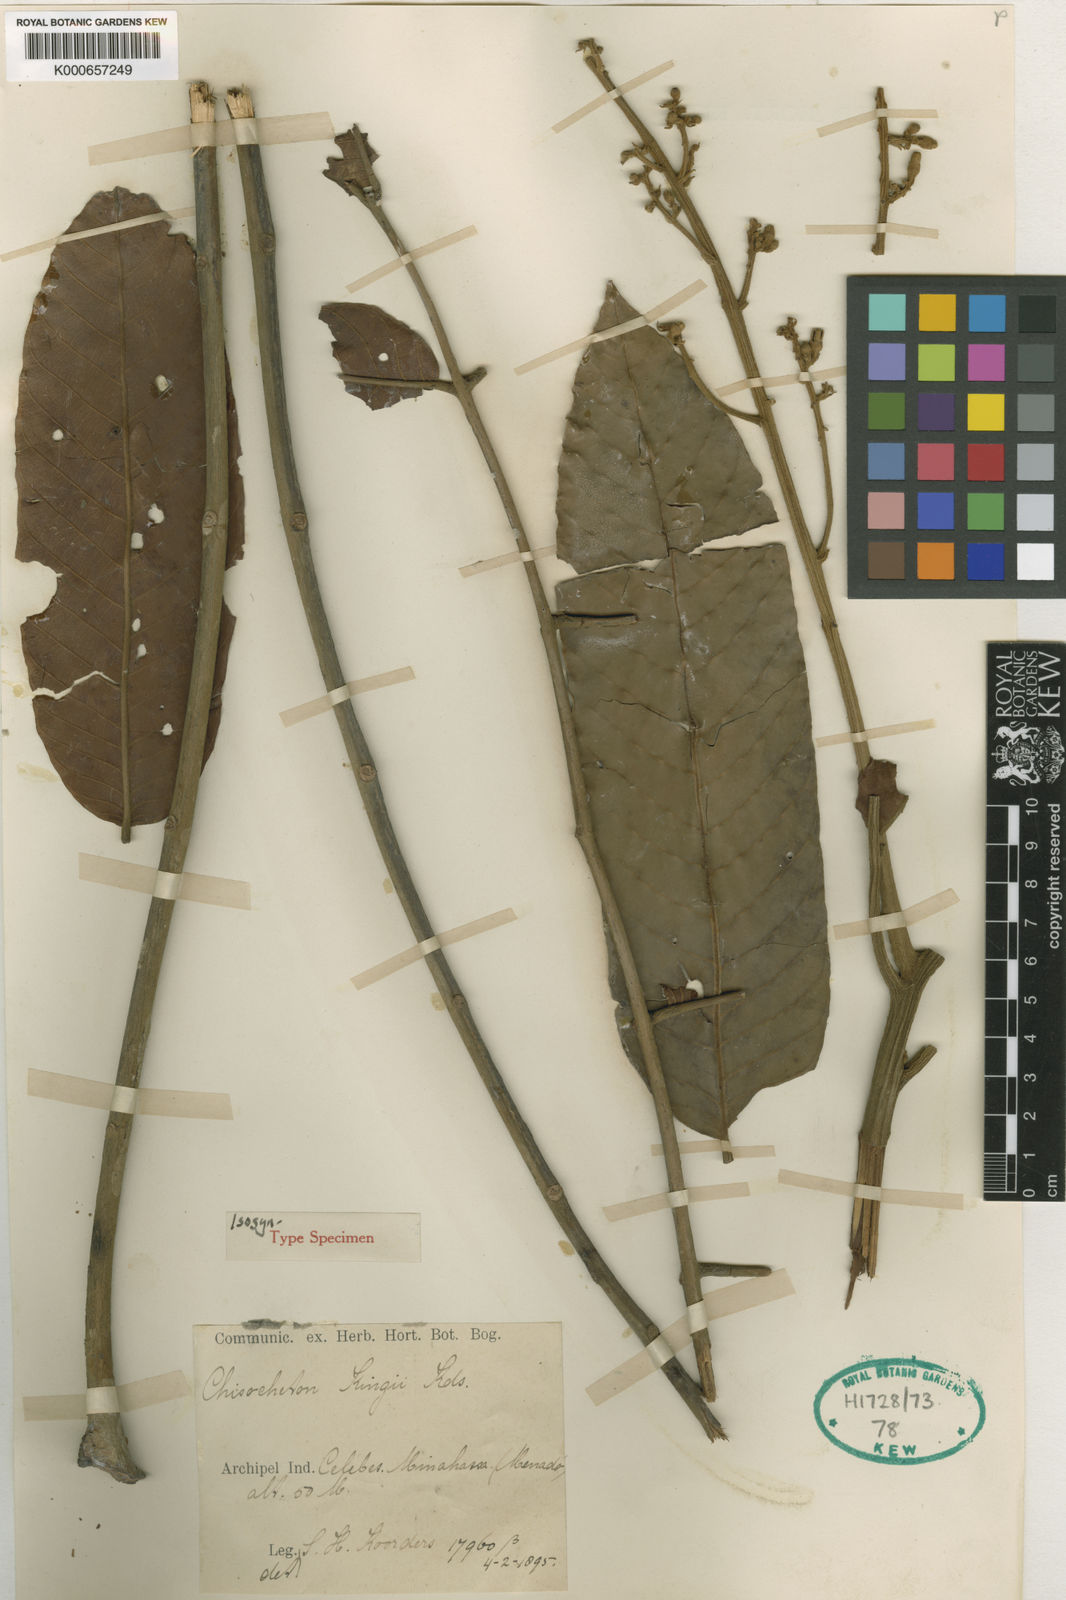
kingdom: Plantae
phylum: Tracheophyta
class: Magnoliopsida
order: Sapindales
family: Meliaceae
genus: Chisocheton
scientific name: Chisocheton koordersii
